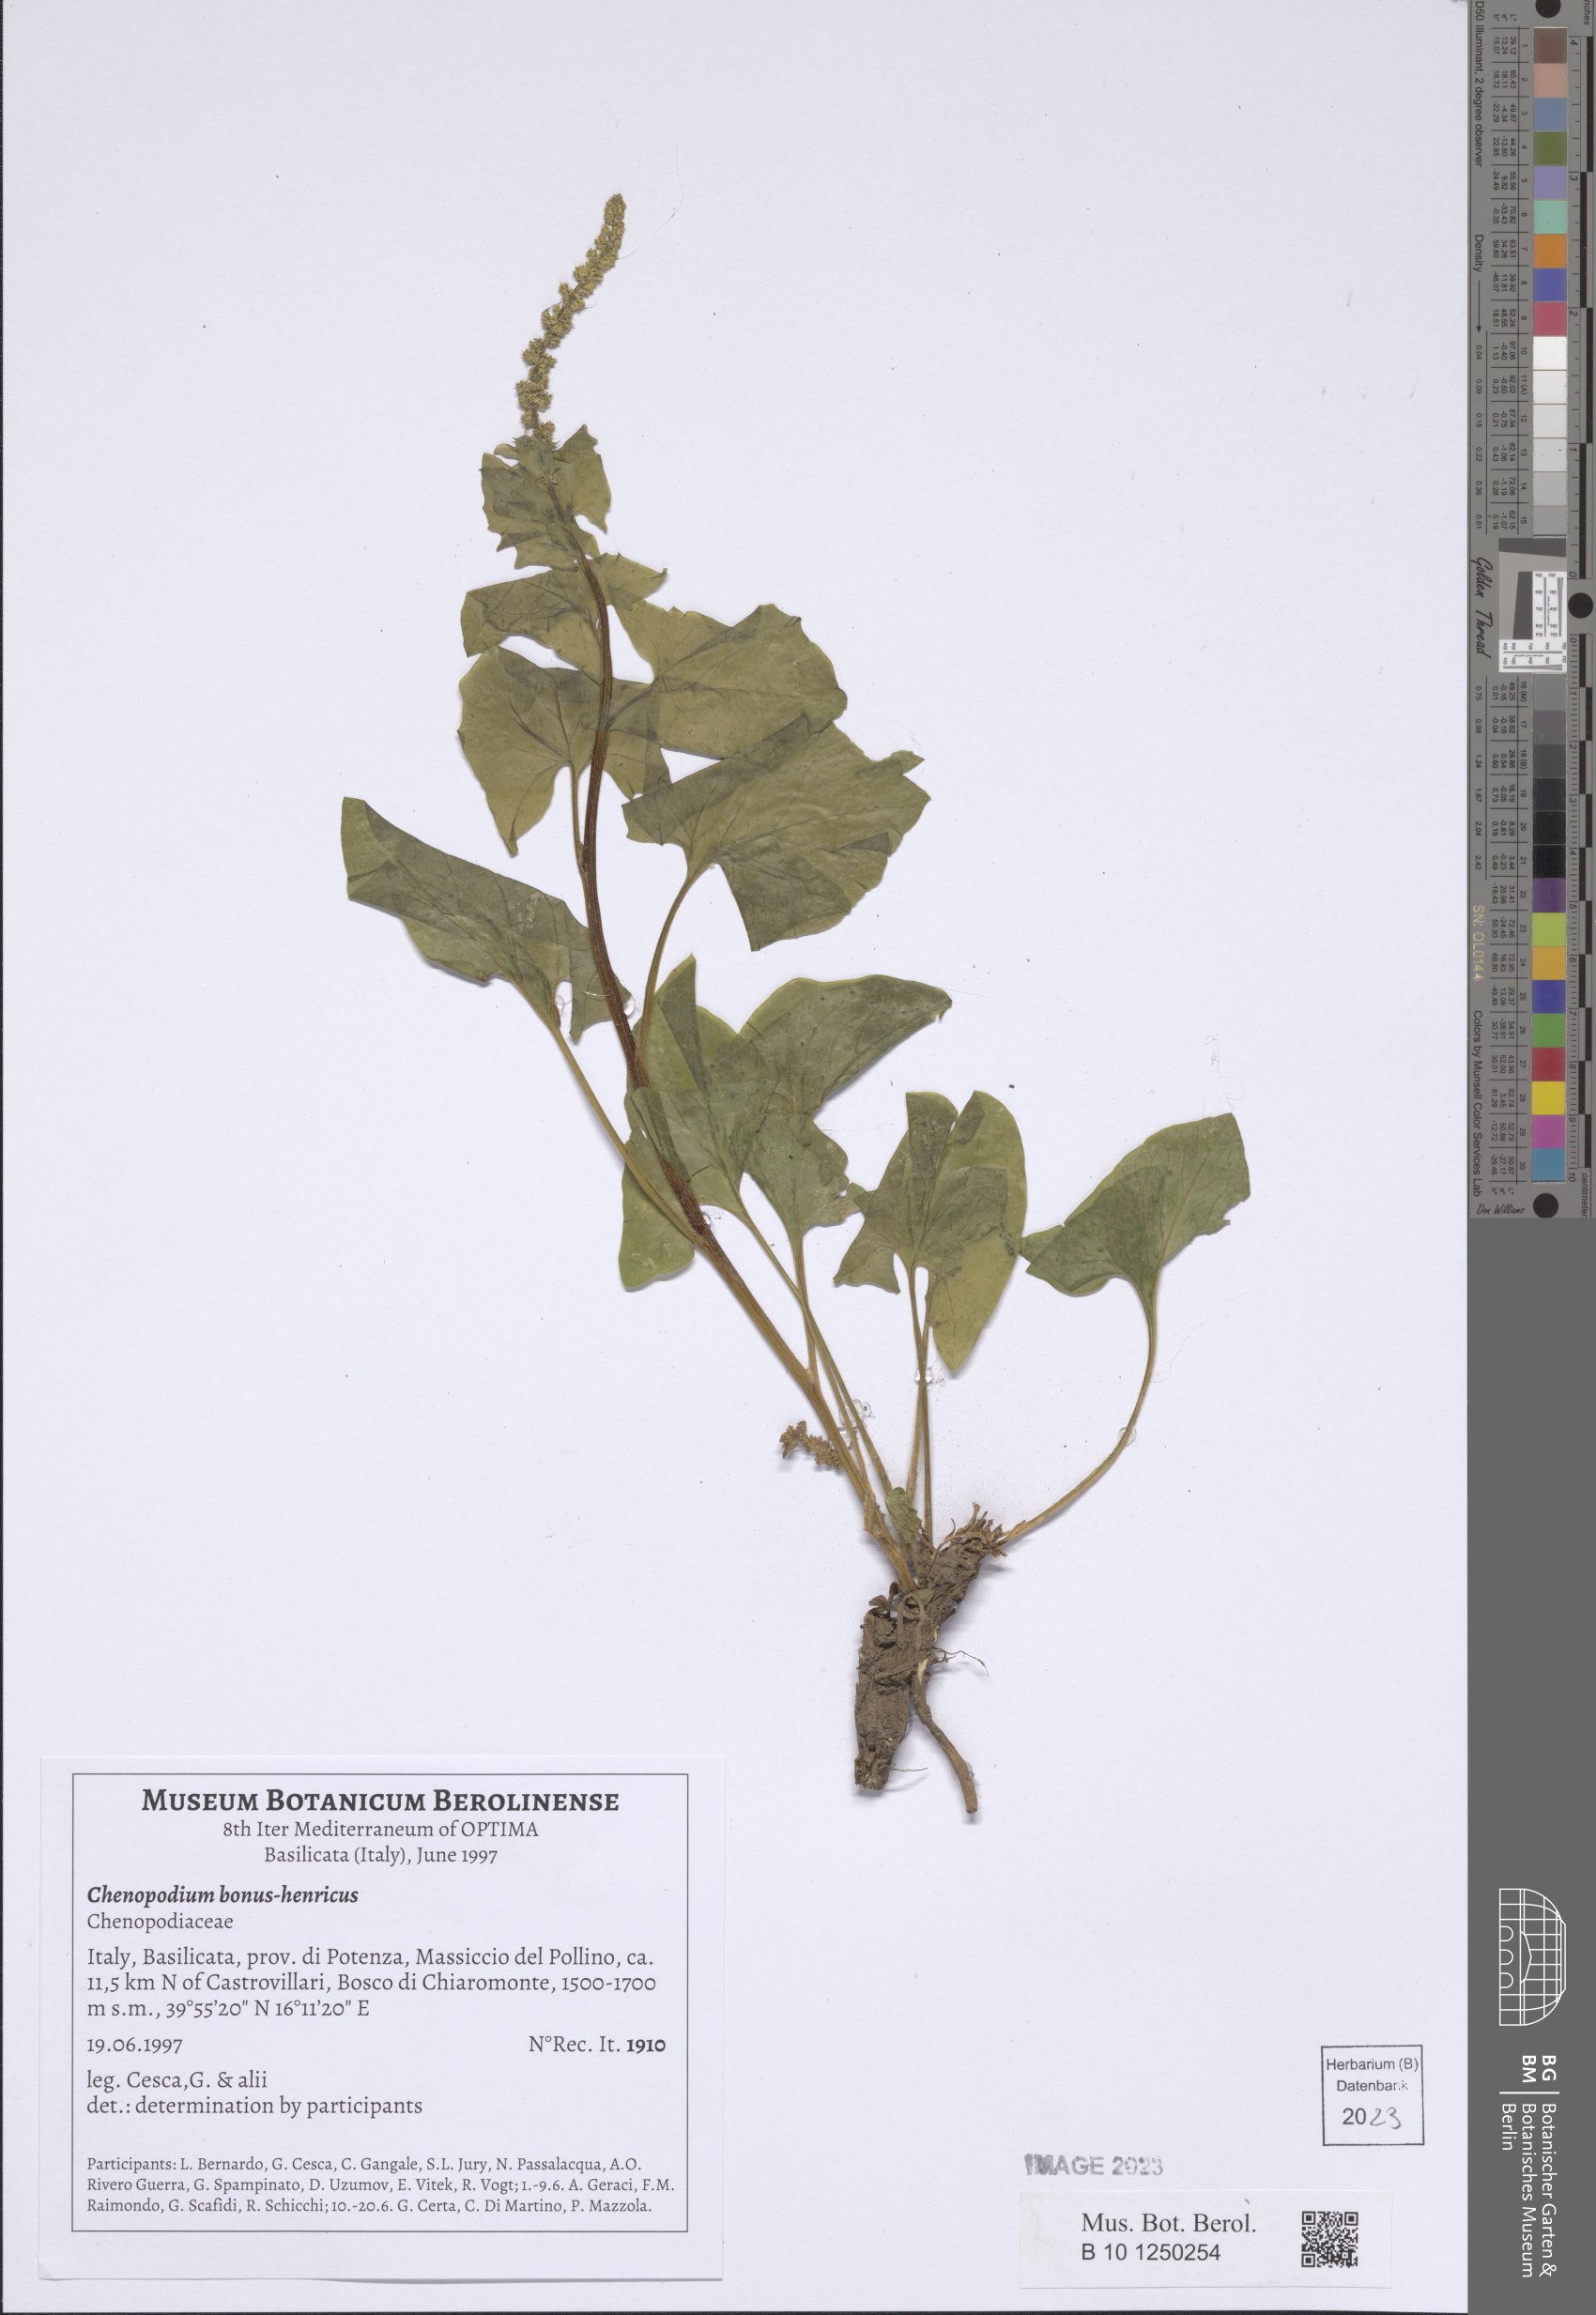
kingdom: Plantae
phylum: Tracheophyta
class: Magnoliopsida
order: Caryophyllales
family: Amaranthaceae
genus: Blitum
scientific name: Blitum bonus-henricus
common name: Good king henry
